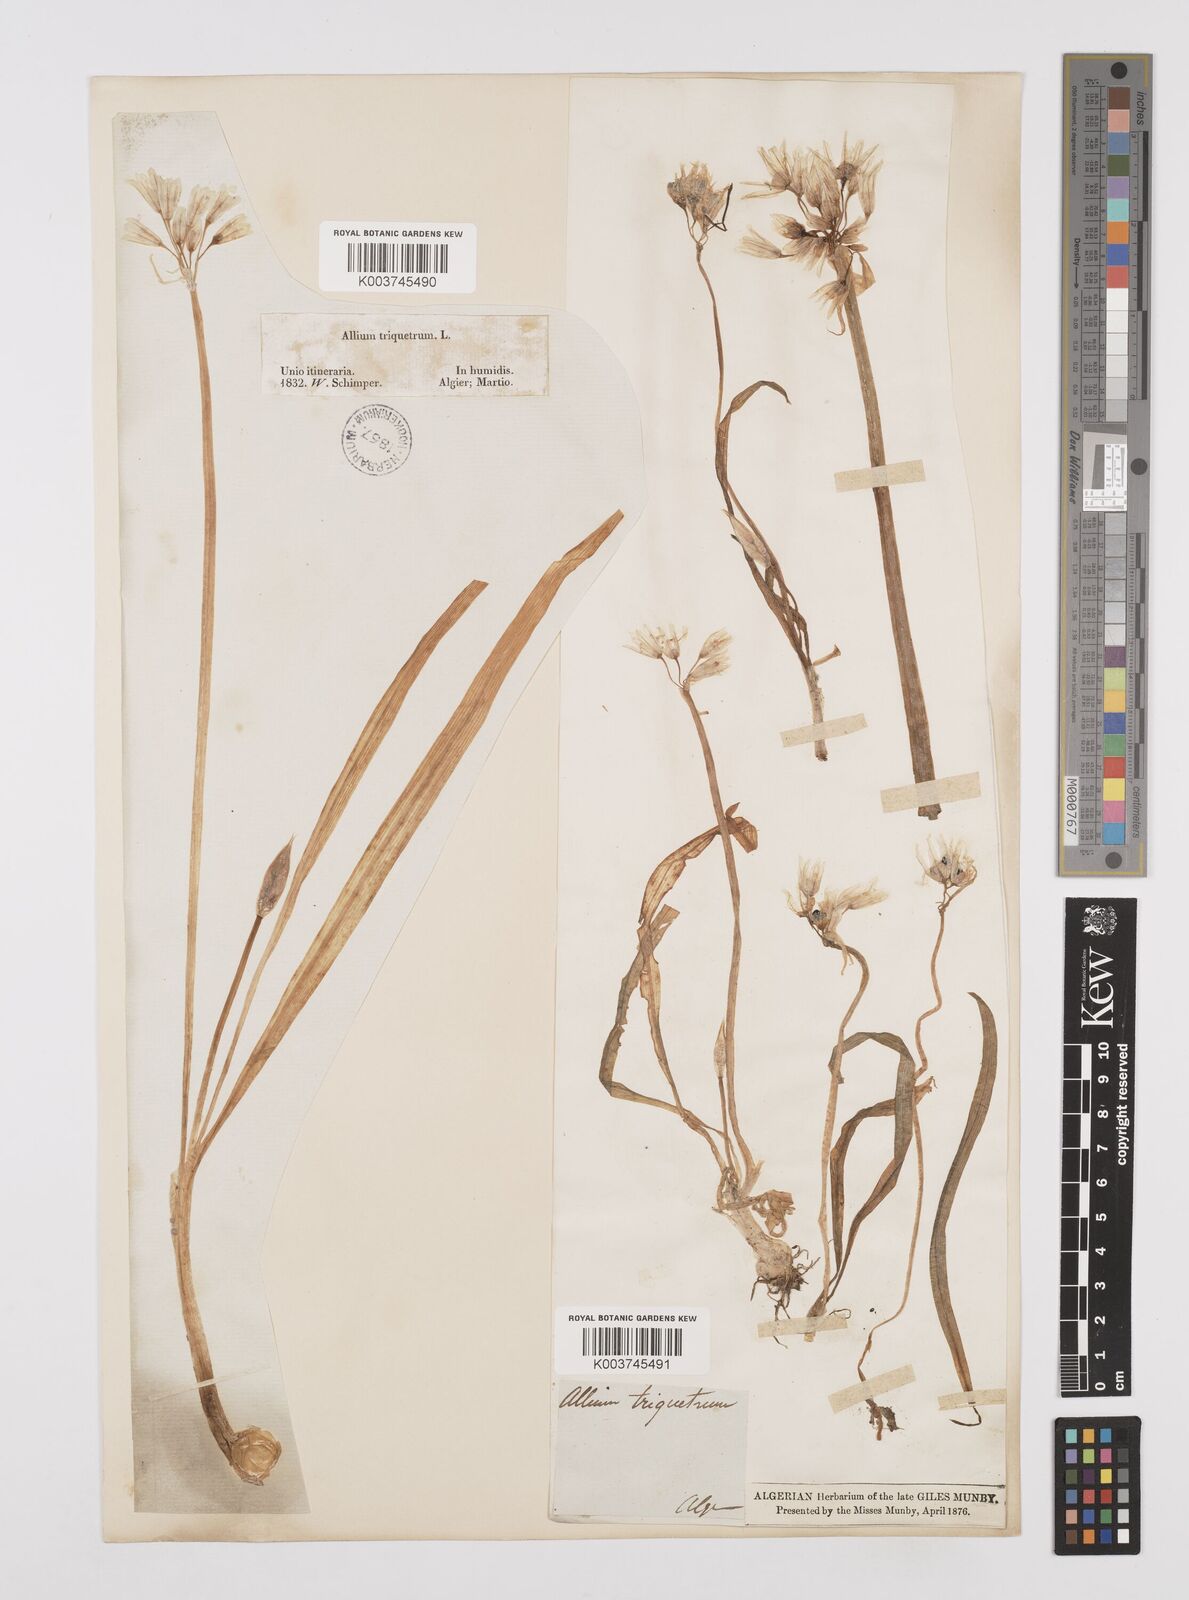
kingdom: Plantae
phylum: Tracheophyta
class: Liliopsida
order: Asparagales
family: Amaryllidaceae
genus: Allium
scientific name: Allium triquetrum
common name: Three-cornered garlic
